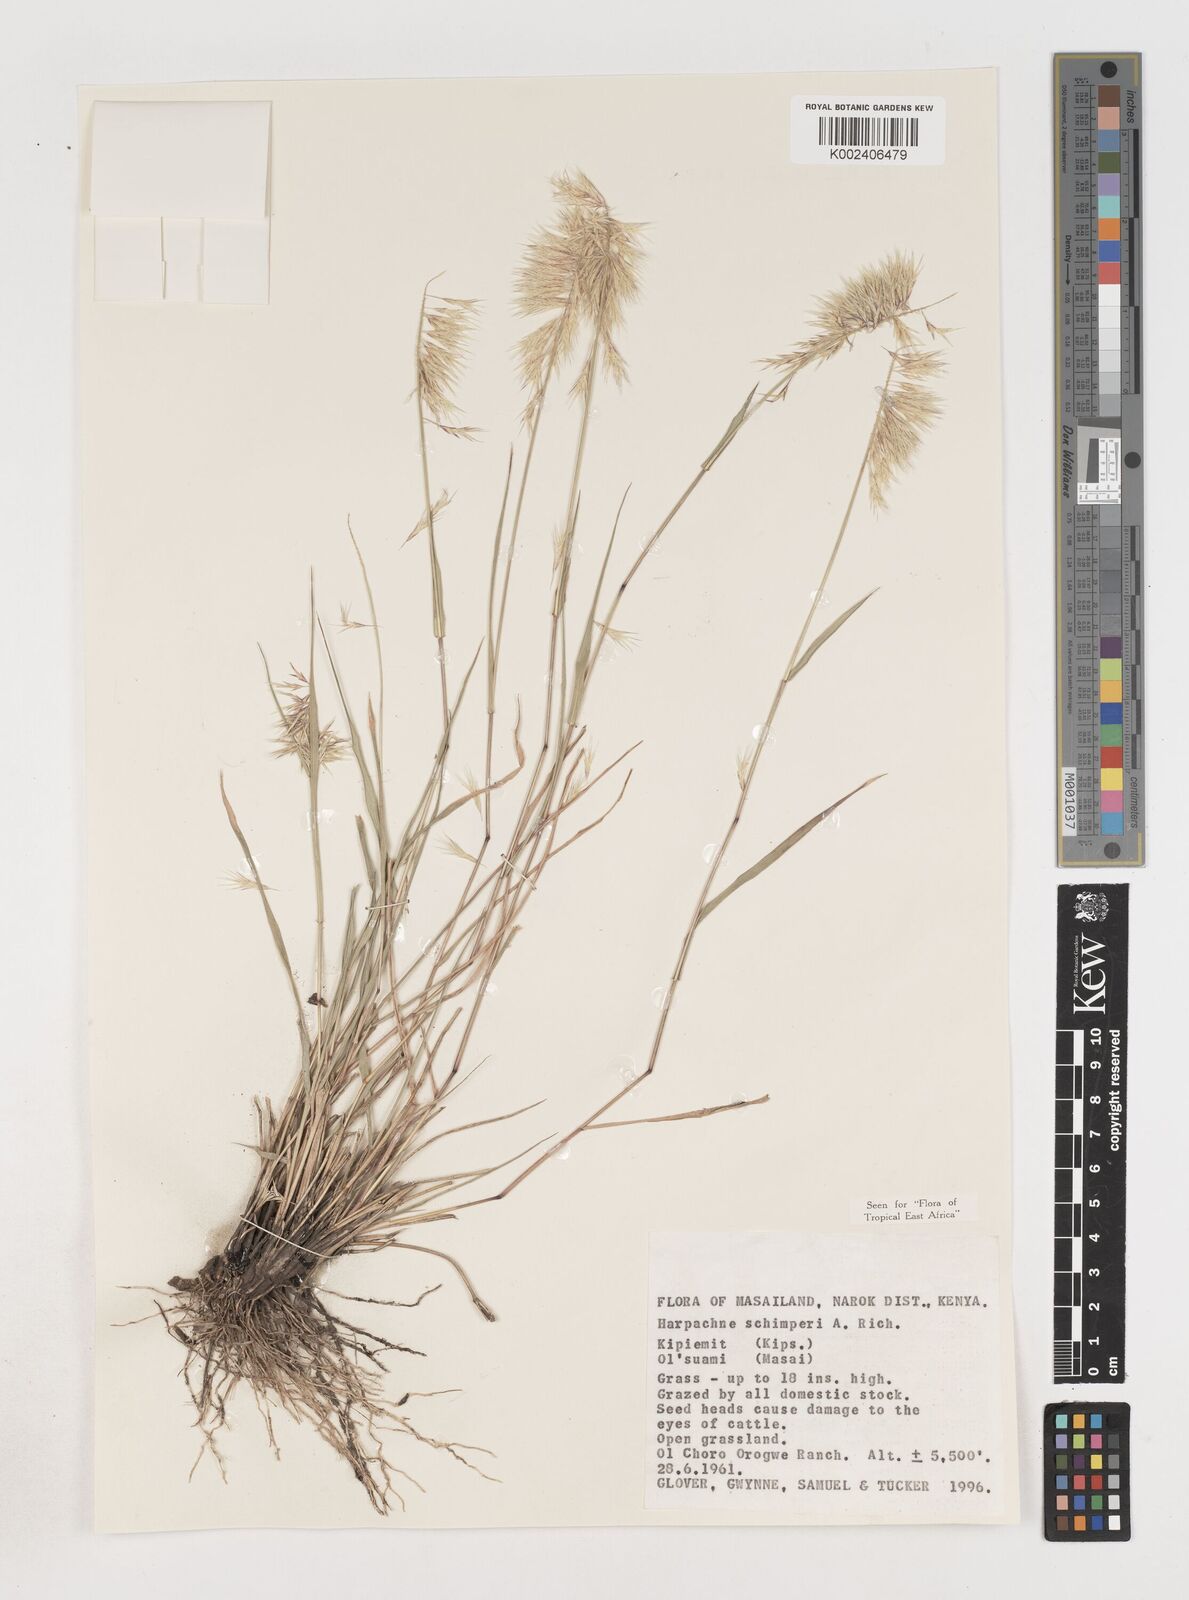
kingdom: Plantae
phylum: Tracheophyta
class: Liliopsida
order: Poales
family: Poaceae
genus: Harpachne
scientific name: Harpachne schimperi
